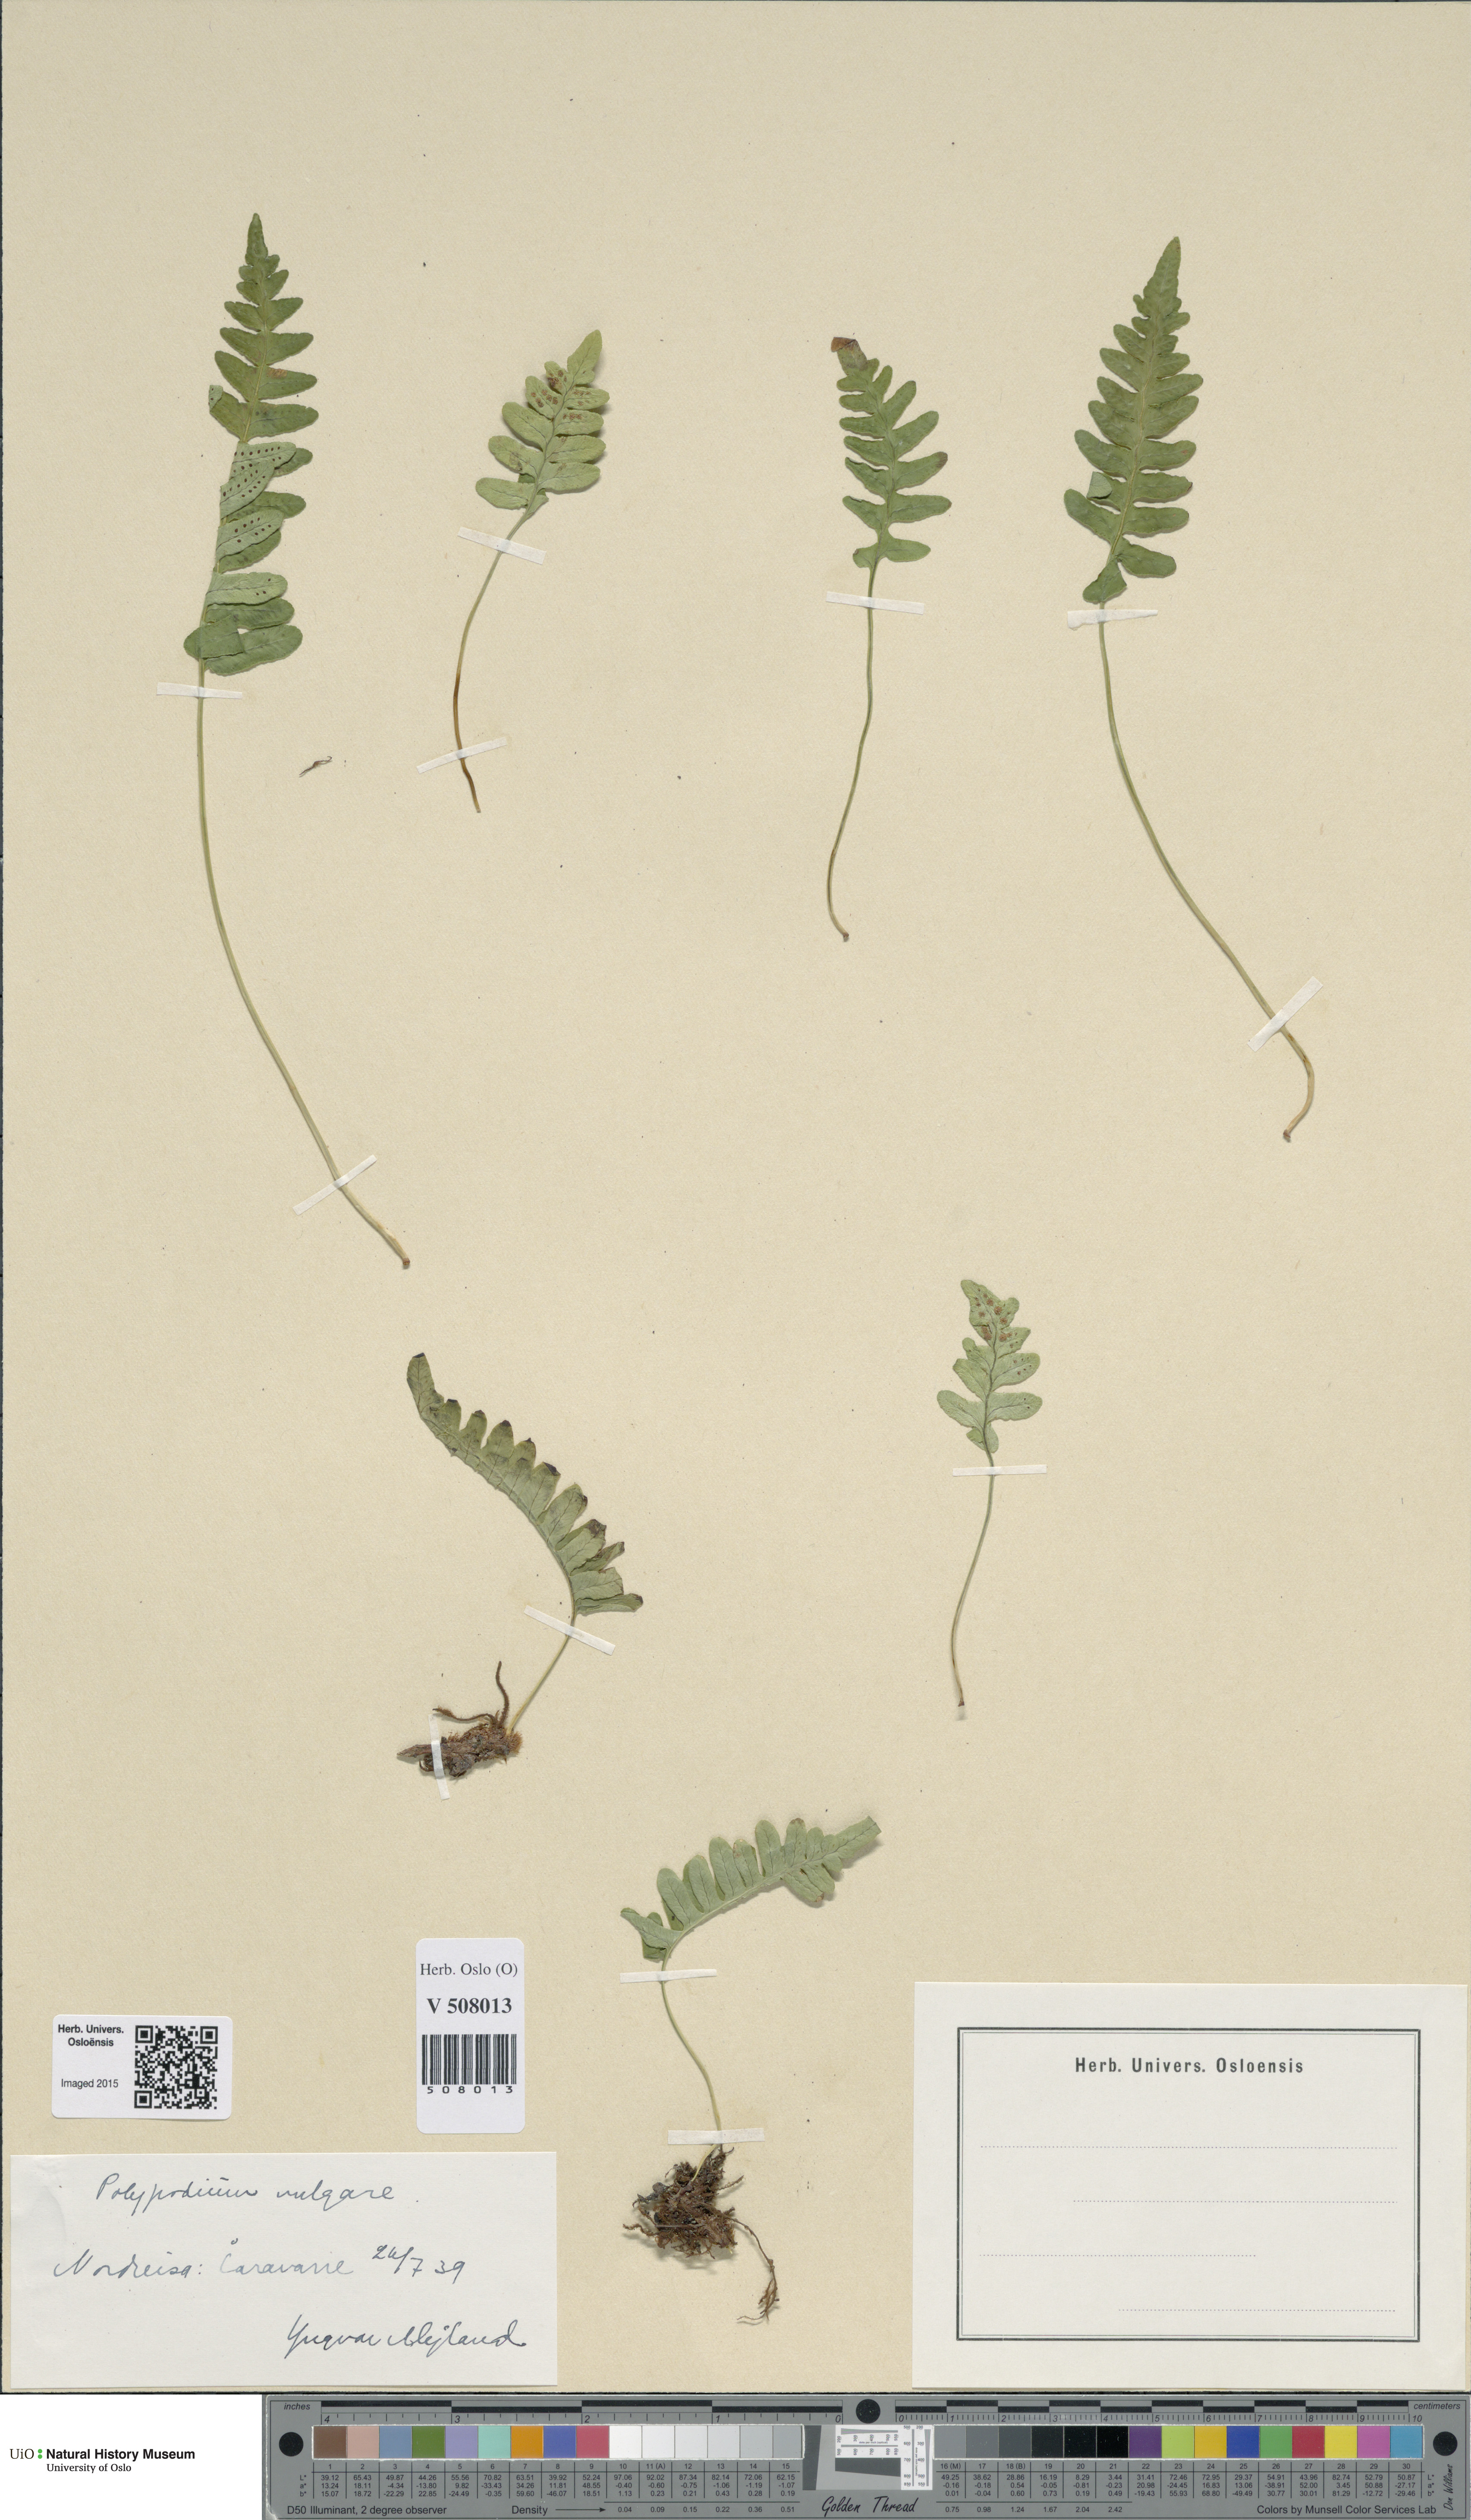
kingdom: Plantae
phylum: Tracheophyta
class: Polypodiopsida
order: Polypodiales
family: Polypodiaceae
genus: Polypodium
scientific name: Polypodium vulgare
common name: Common polypody
